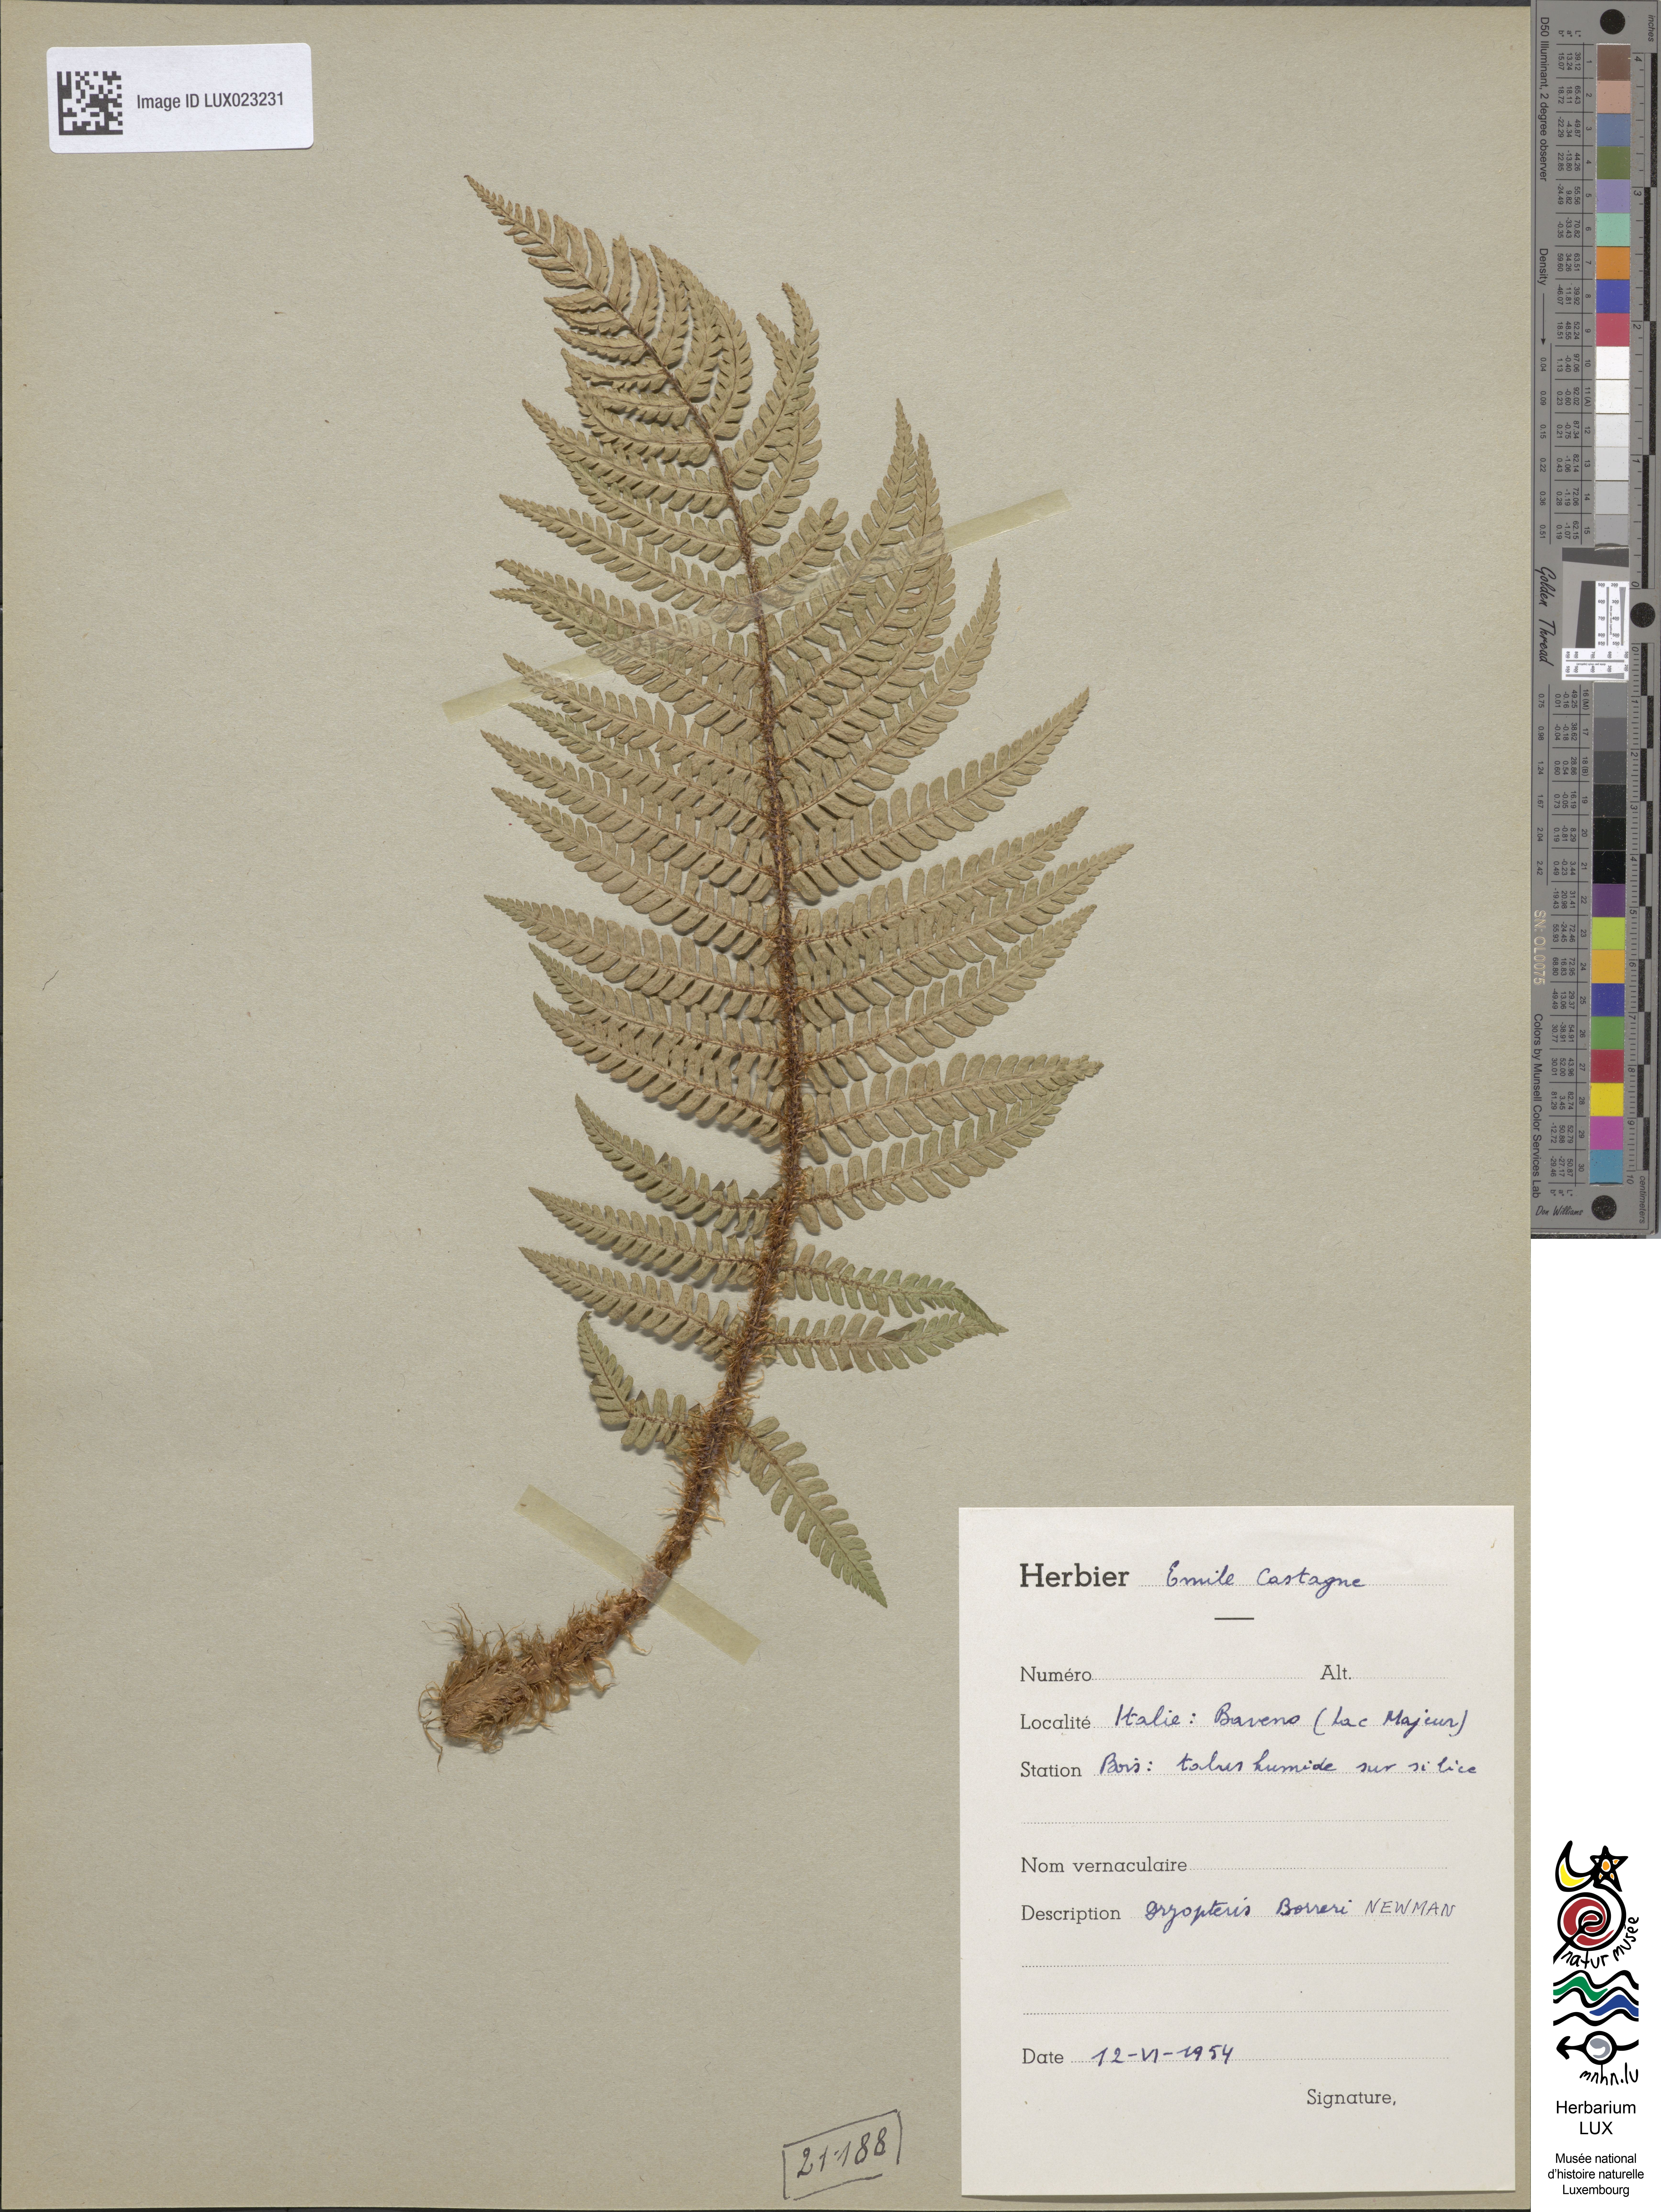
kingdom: Plantae
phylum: Tracheophyta
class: Polypodiopsida
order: Polypodiales
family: Dryopteridaceae
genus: Dryopteris
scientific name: Dryopteris
